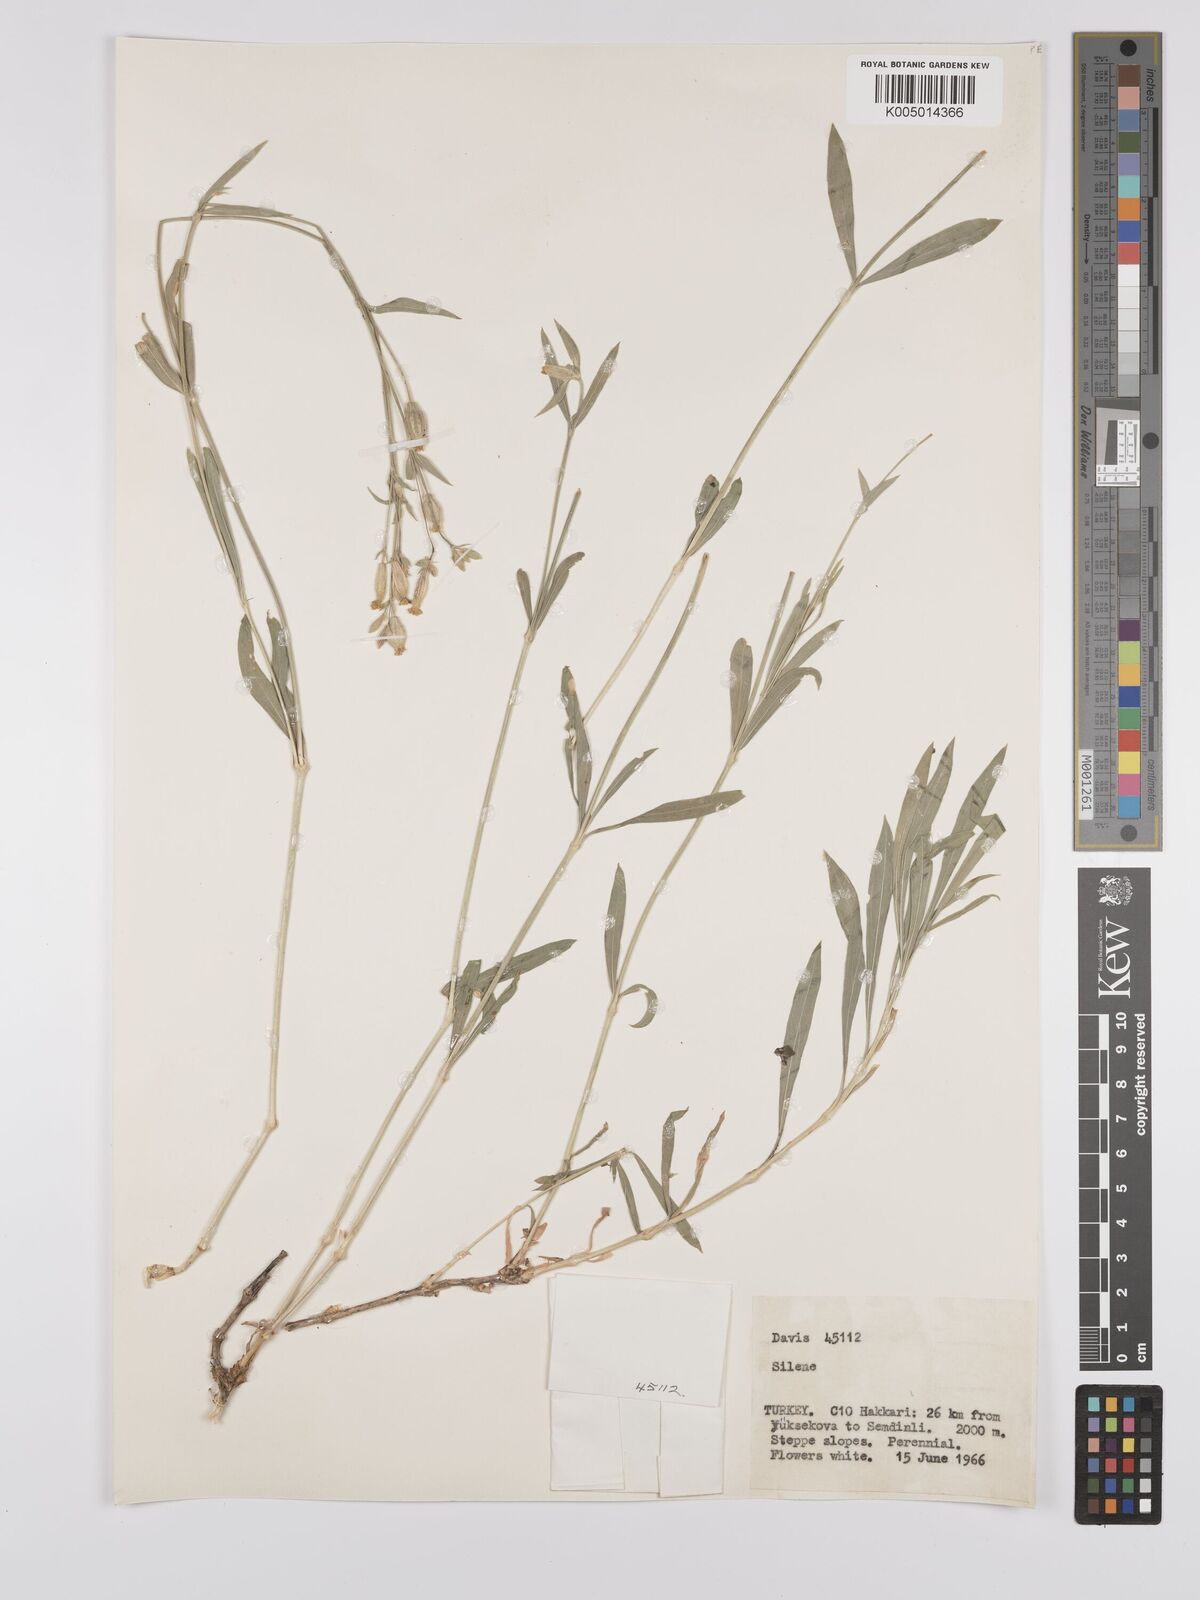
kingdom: Plantae
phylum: Tracheophyta
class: Magnoliopsida
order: Caryophyllales
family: Caryophyllaceae
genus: Silene
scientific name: Silene
